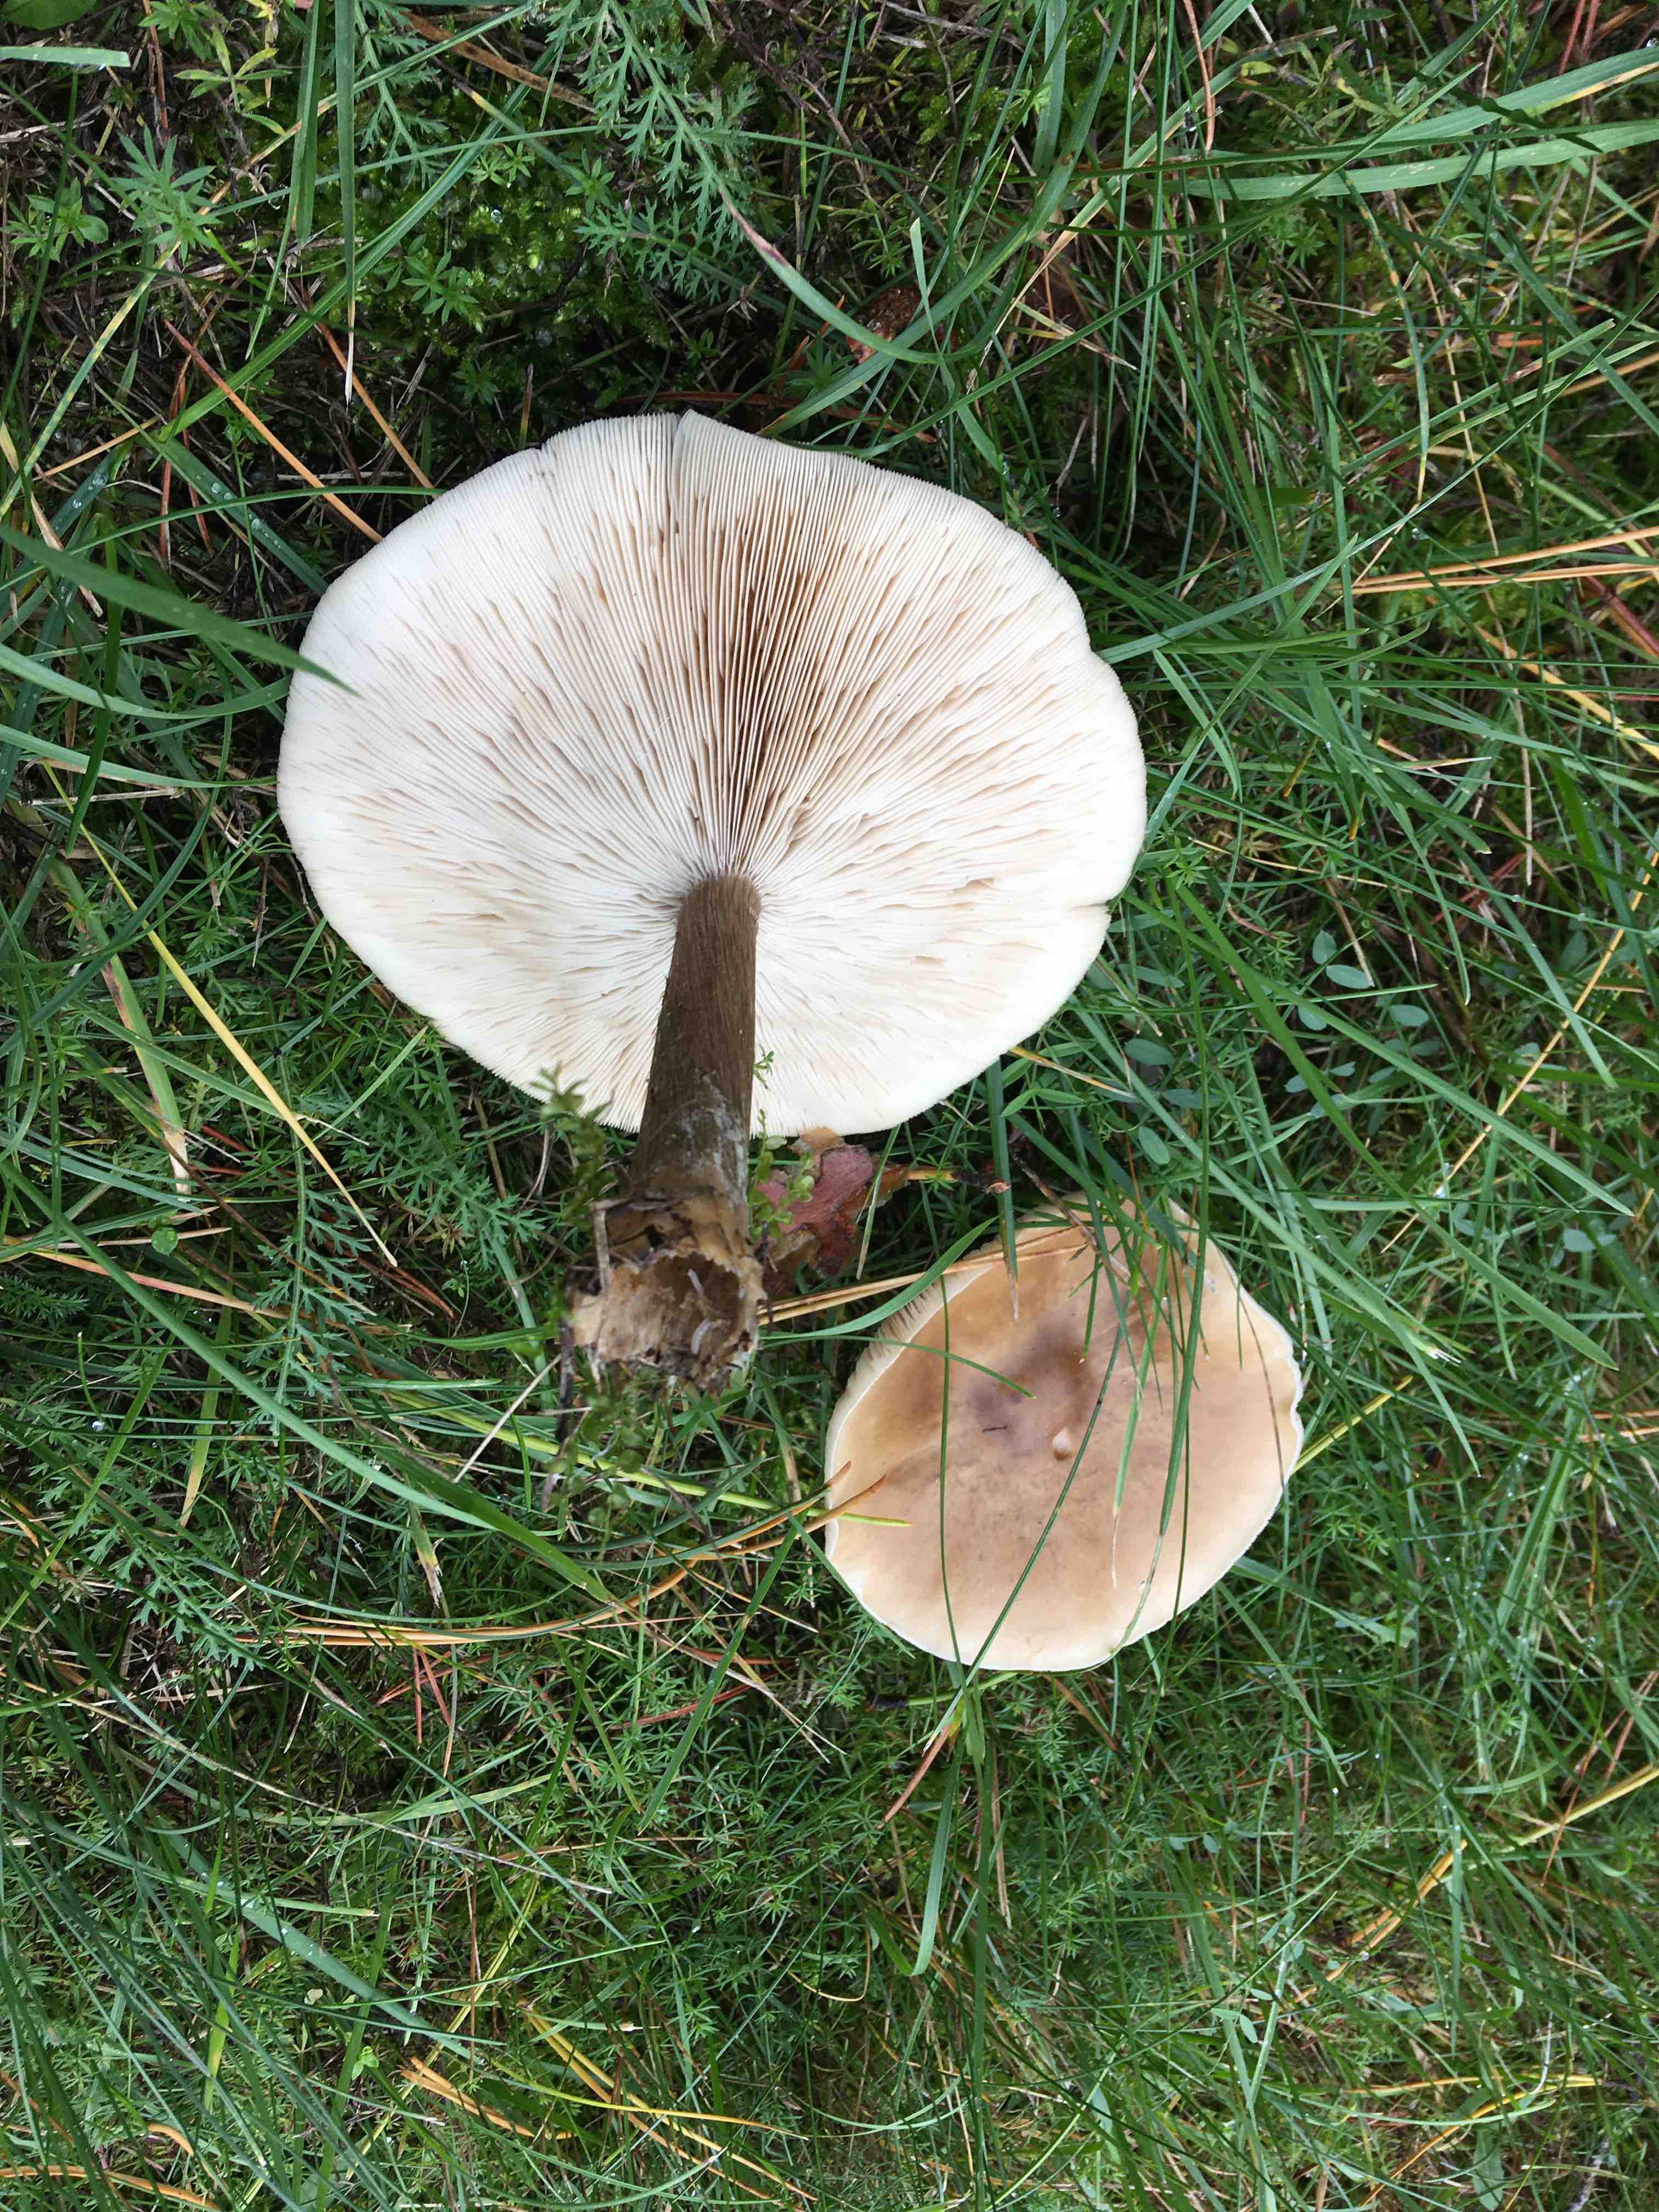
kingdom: Fungi
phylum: Basidiomycota
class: Agaricomycetes
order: Agaricales
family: Tricholomataceae
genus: Melanoleuca
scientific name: Melanoleuca grammopodia
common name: stribestokket munkehat
